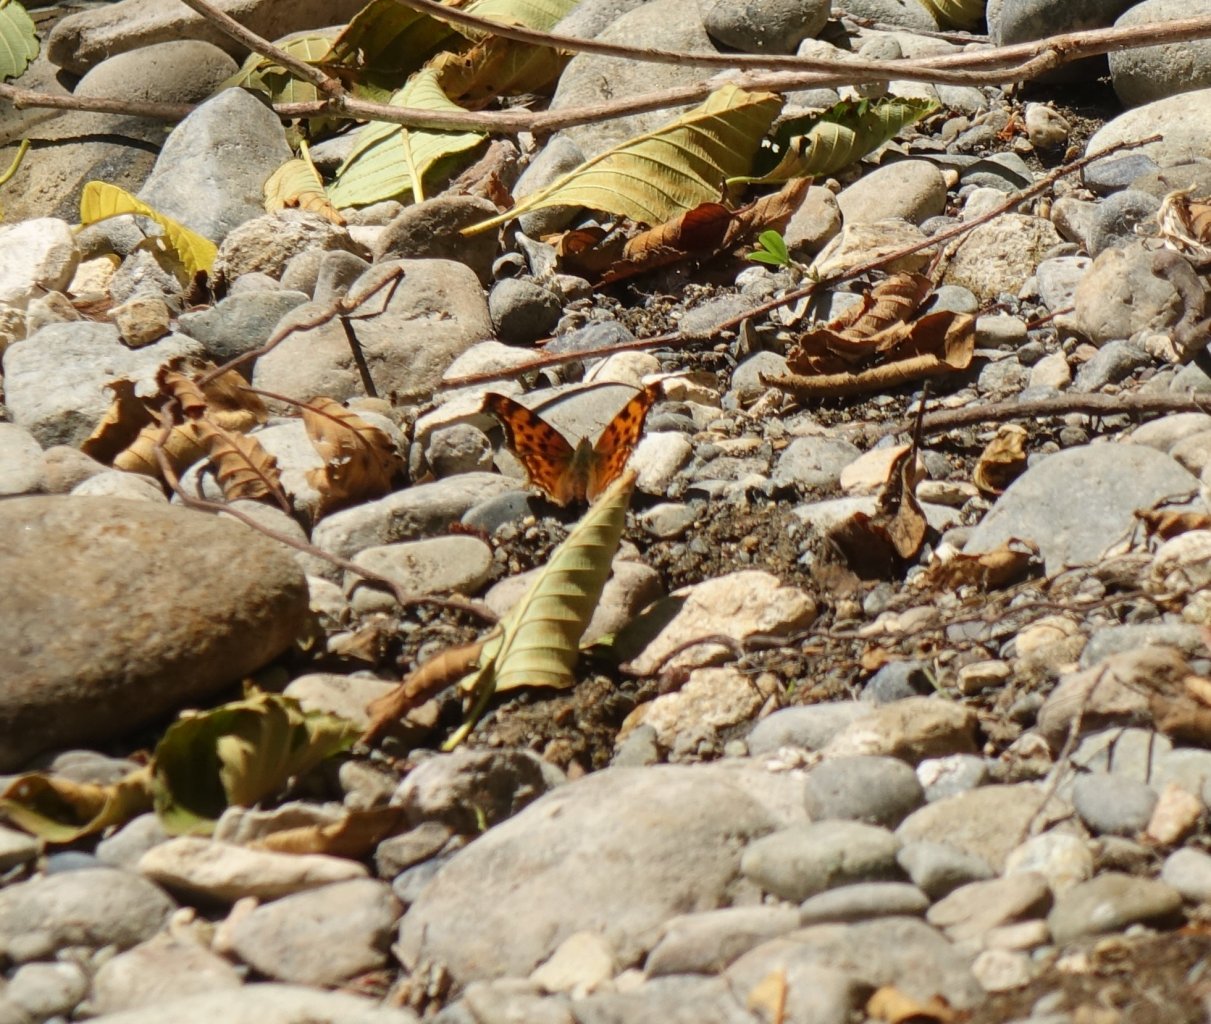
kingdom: Animalia
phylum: Arthropoda
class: Insecta
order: Lepidoptera
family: Nymphalidae
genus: Polygonia
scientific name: Polygonia satyrus
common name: Satyr Comma
